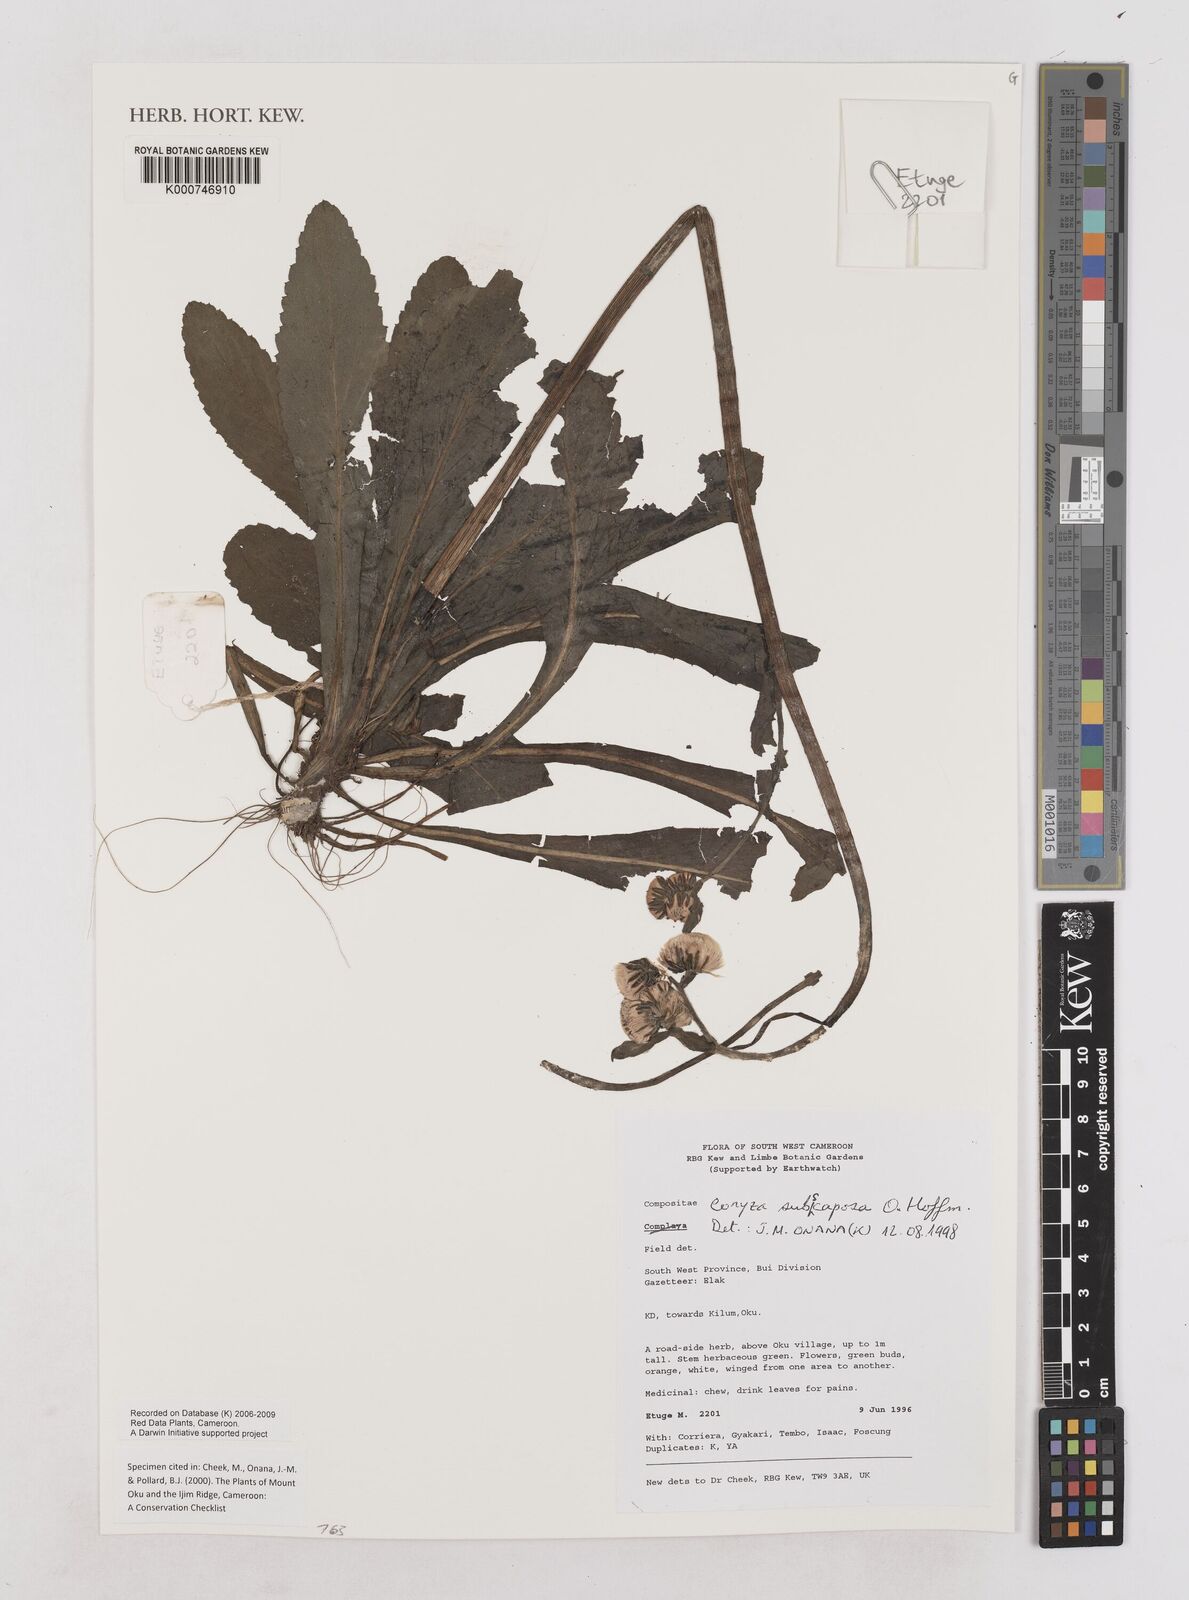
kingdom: Plantae
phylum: Tracheophyta
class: Magnoliopsida
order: Asterales
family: Asteraceae
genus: Eschenbachia
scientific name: Eschenbachia subscaposa
